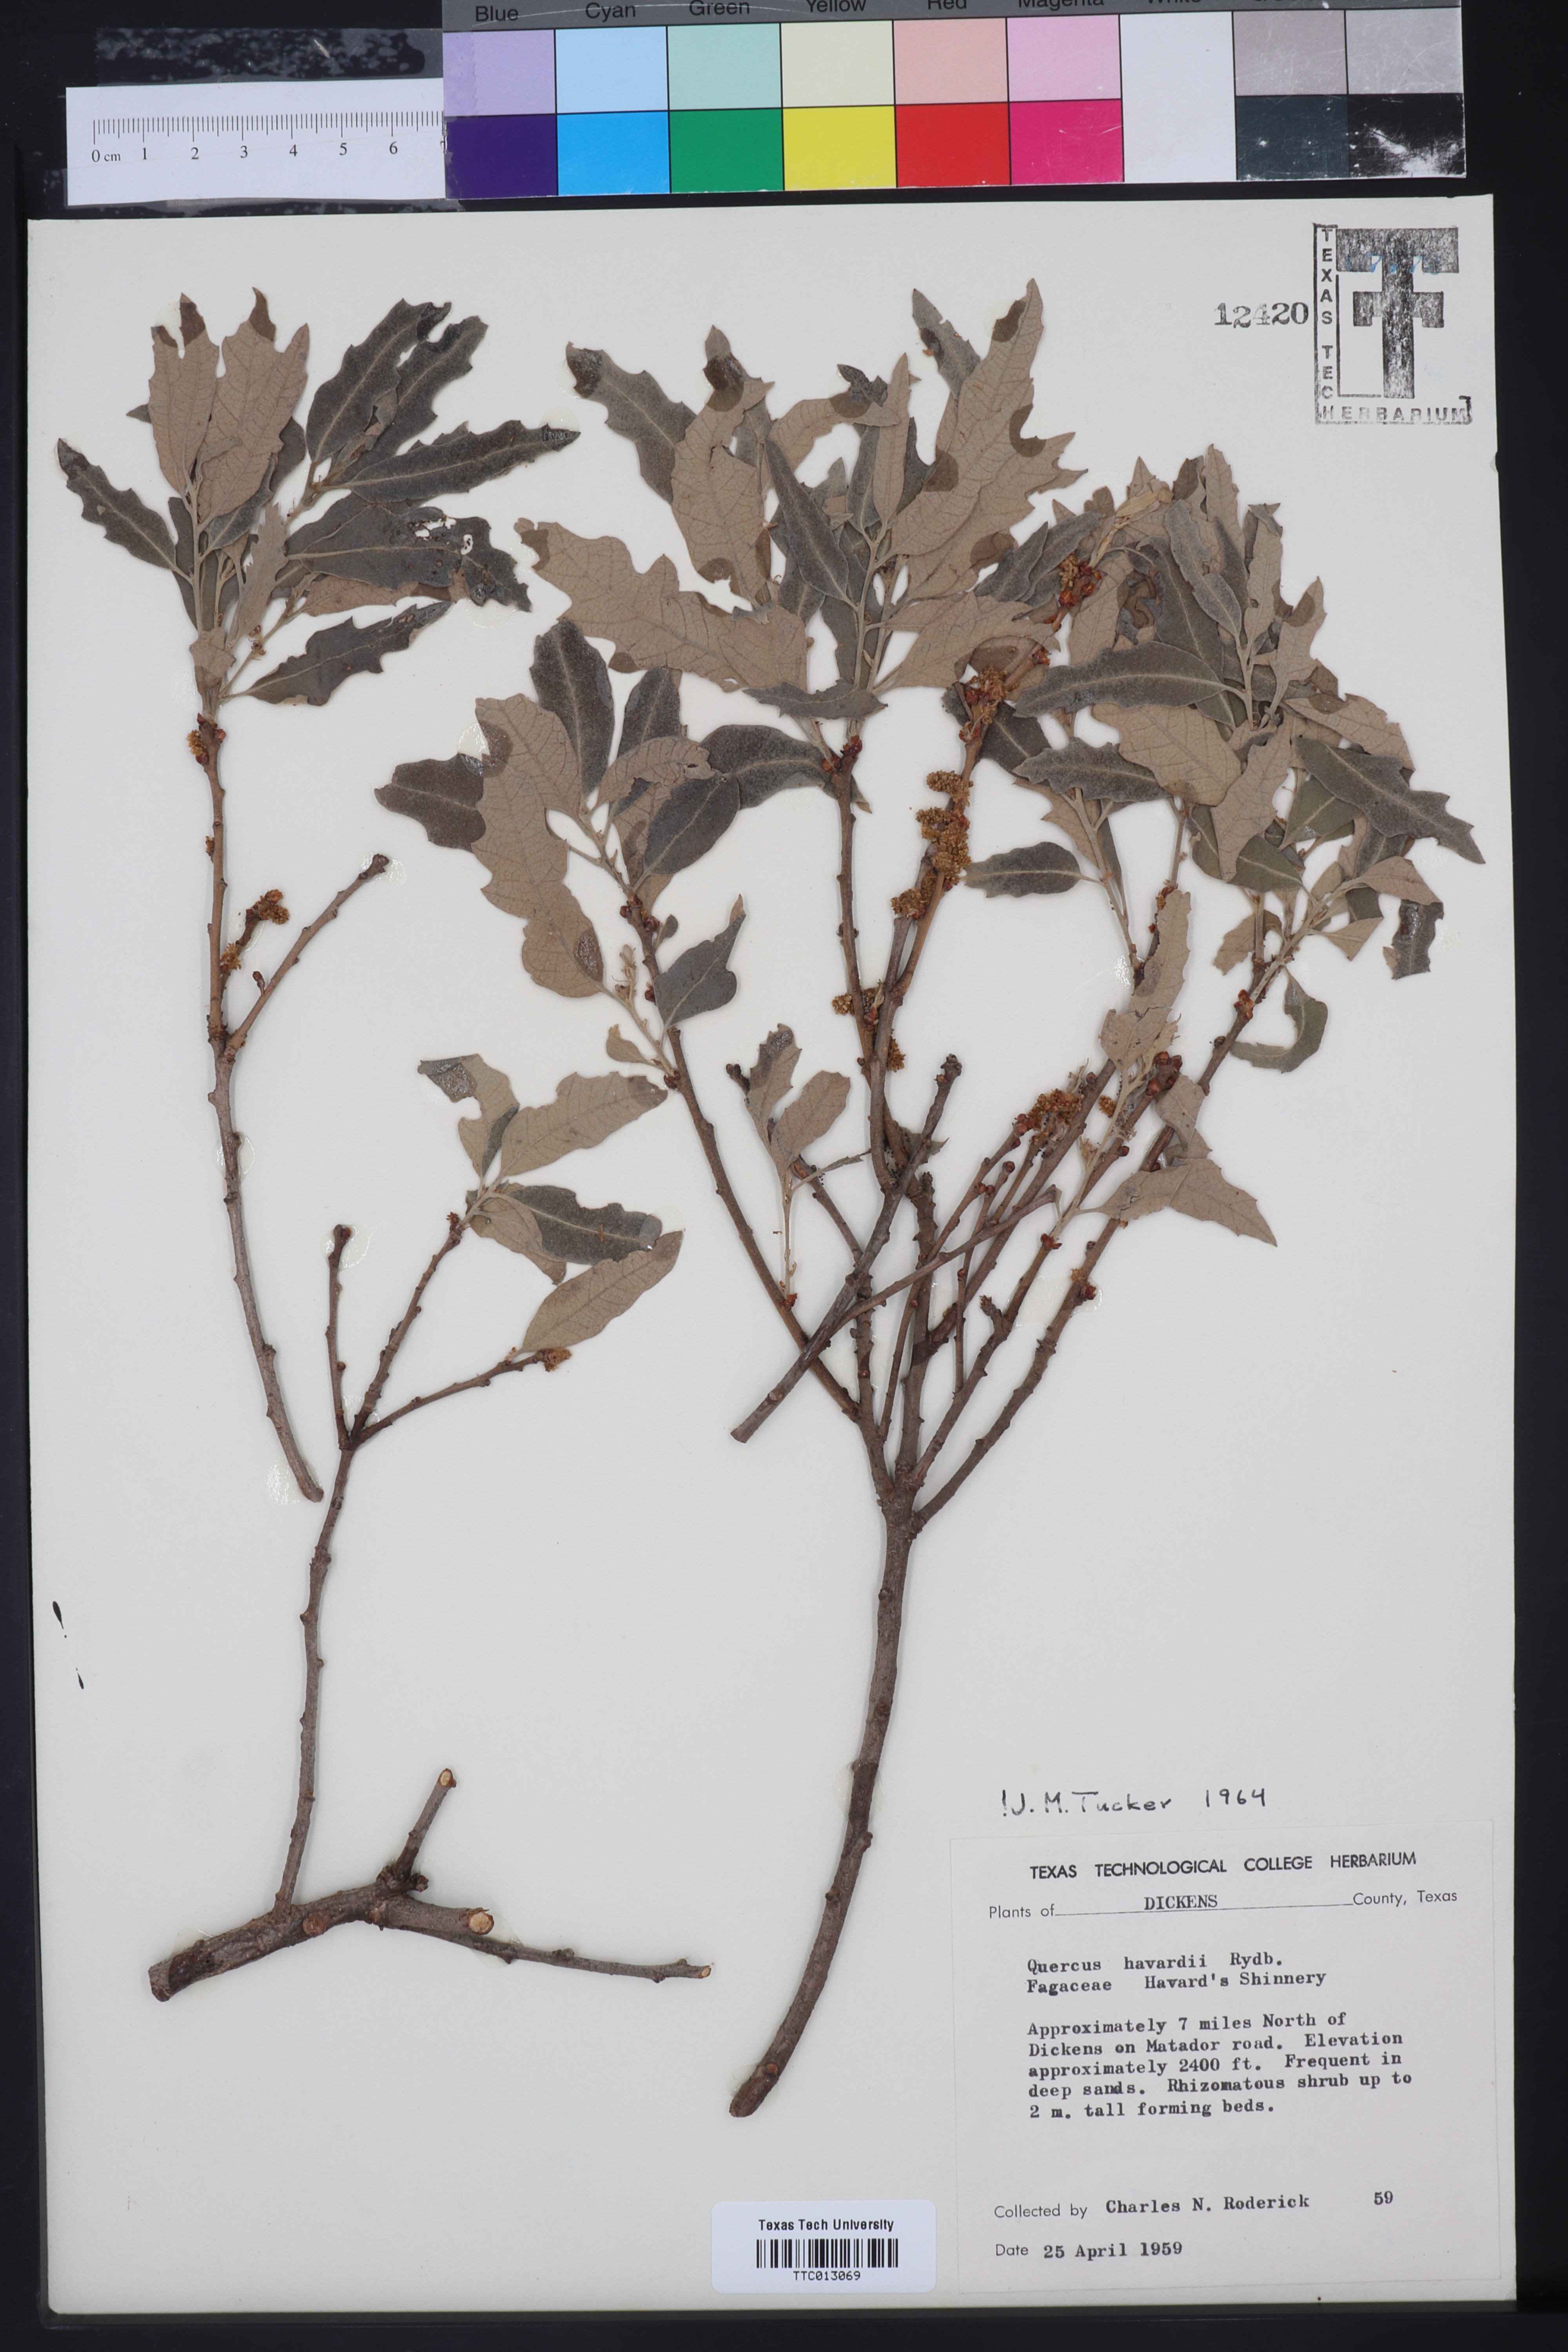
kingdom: Plantae
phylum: Tracheophyta
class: Magnoliopsida
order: Fagales
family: Fagaceae
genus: Quercus
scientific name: Quercus havardii
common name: Shinnery oak
